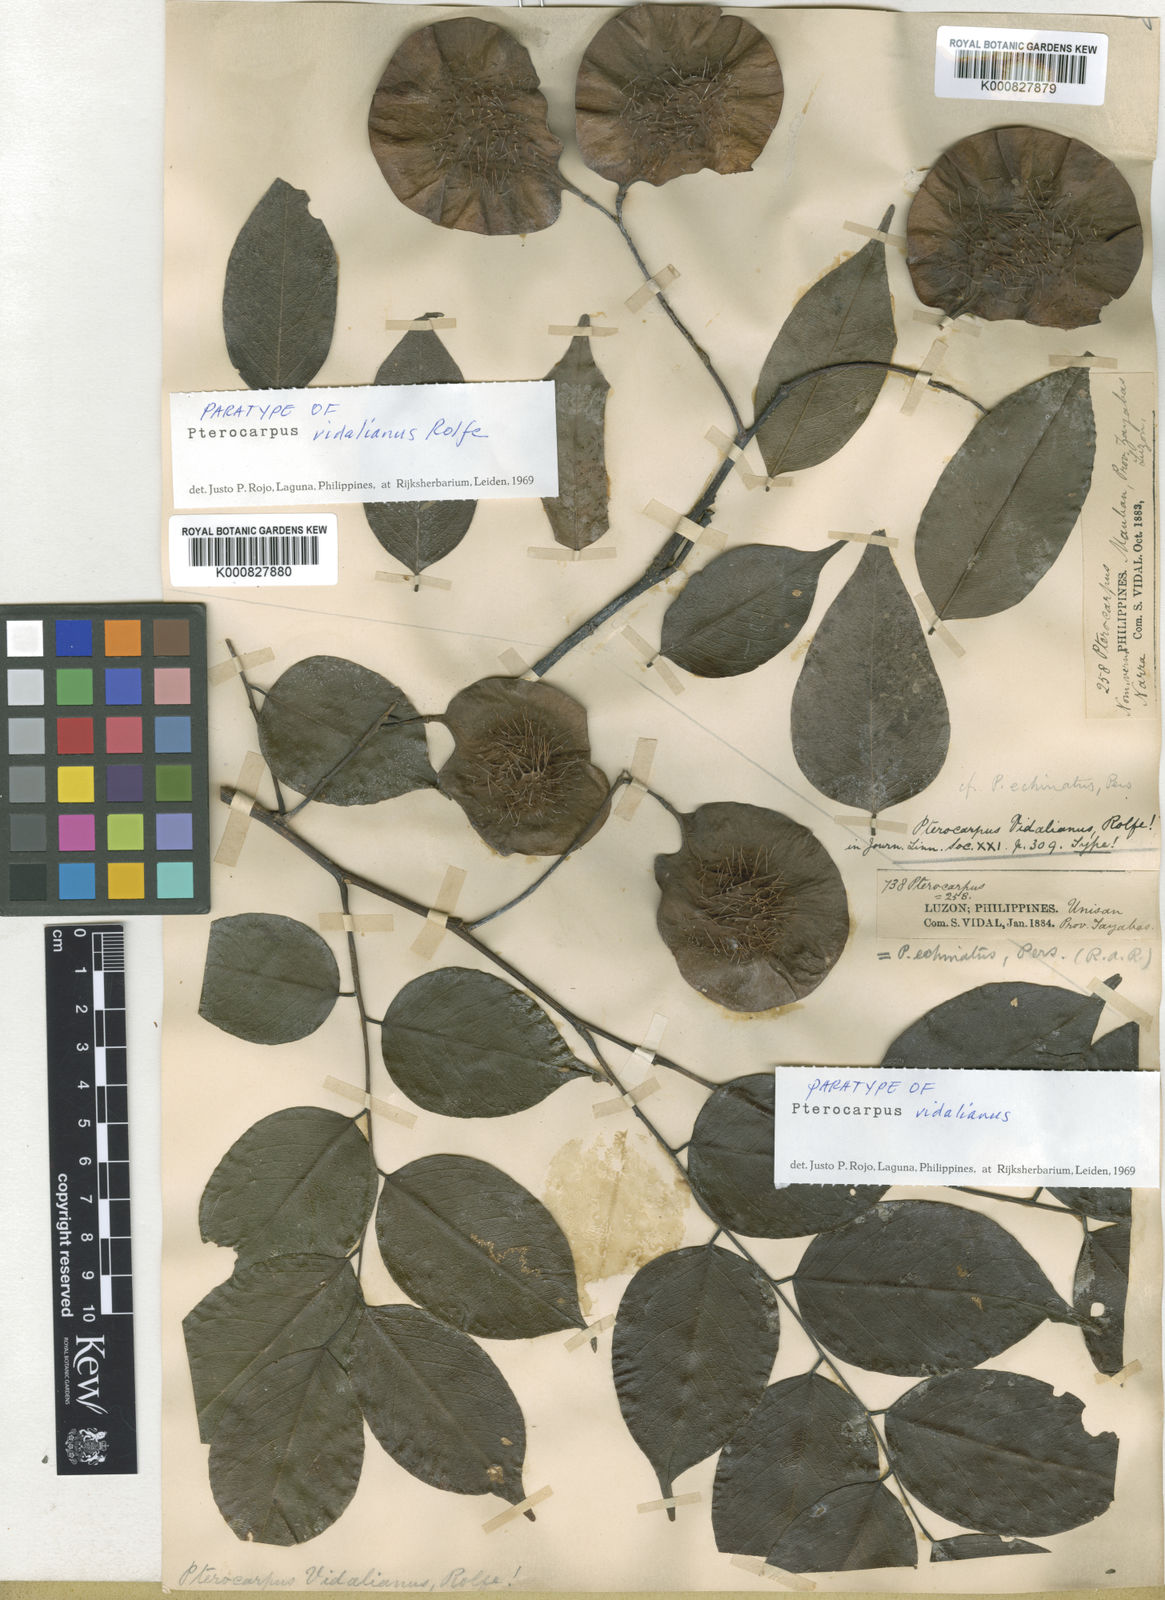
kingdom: Plantae
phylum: Tracheophyta
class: Magnoliopsida
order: Fabales
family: Fabaceae
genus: Pterocarpus
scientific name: Pterocarpus indicus
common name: Burmese rosewood
